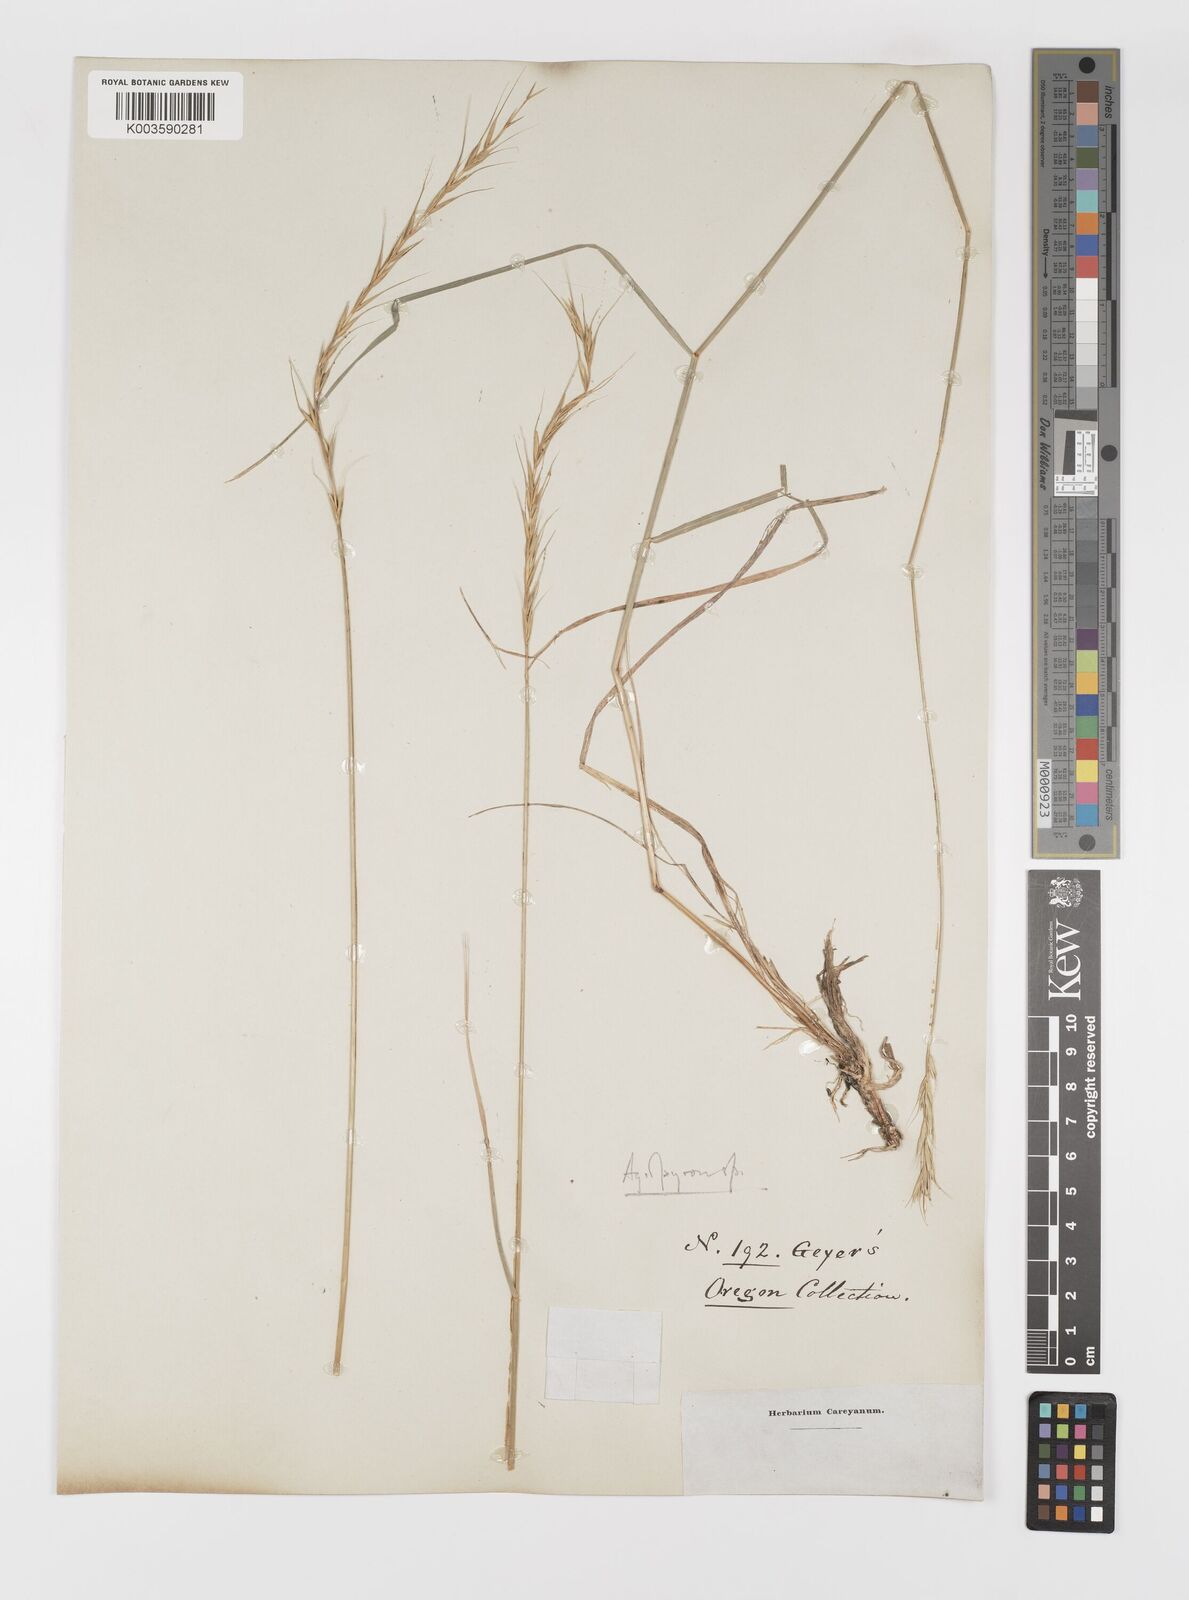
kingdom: Plantae
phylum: Tracheophyta
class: Liliopsida
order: Poales
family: Poaceae
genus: Elymus
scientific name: Elymus
